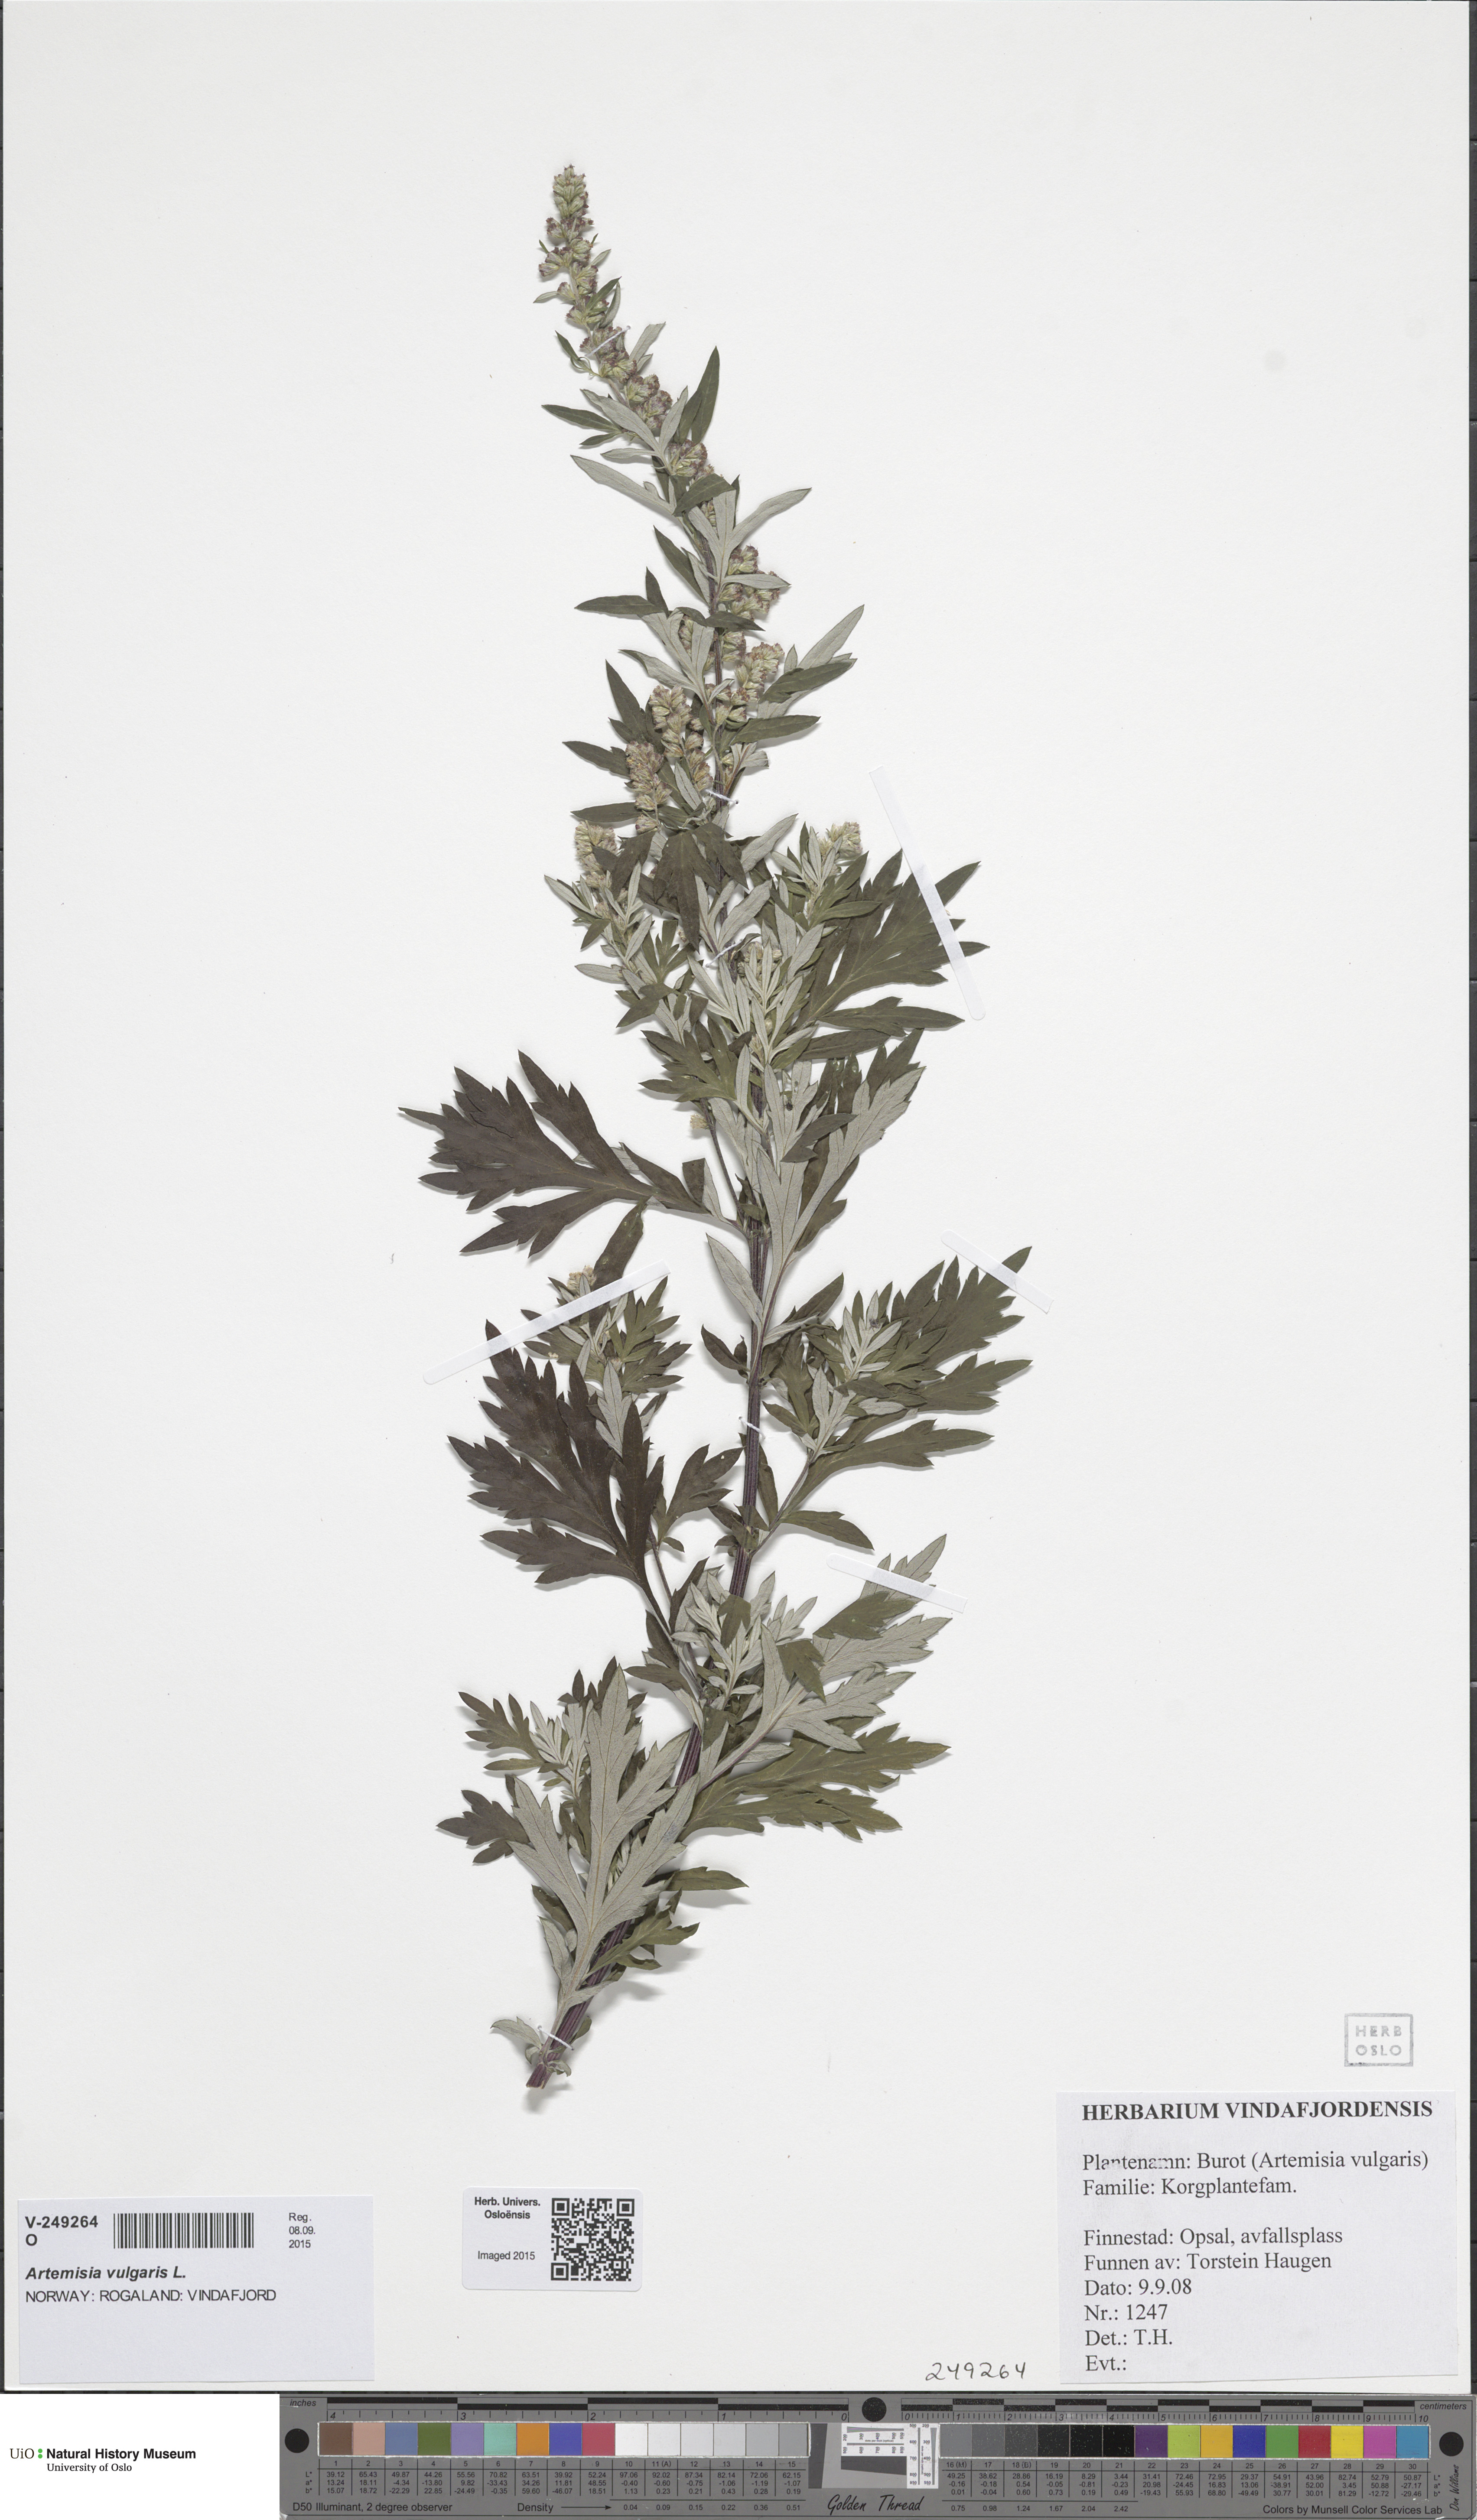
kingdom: Plantae
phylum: Tracheophyta
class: Magnoliopsida
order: Asterales
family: Asteraceae
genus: Artemisia
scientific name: Artemisia vulgaris
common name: Mugwort
